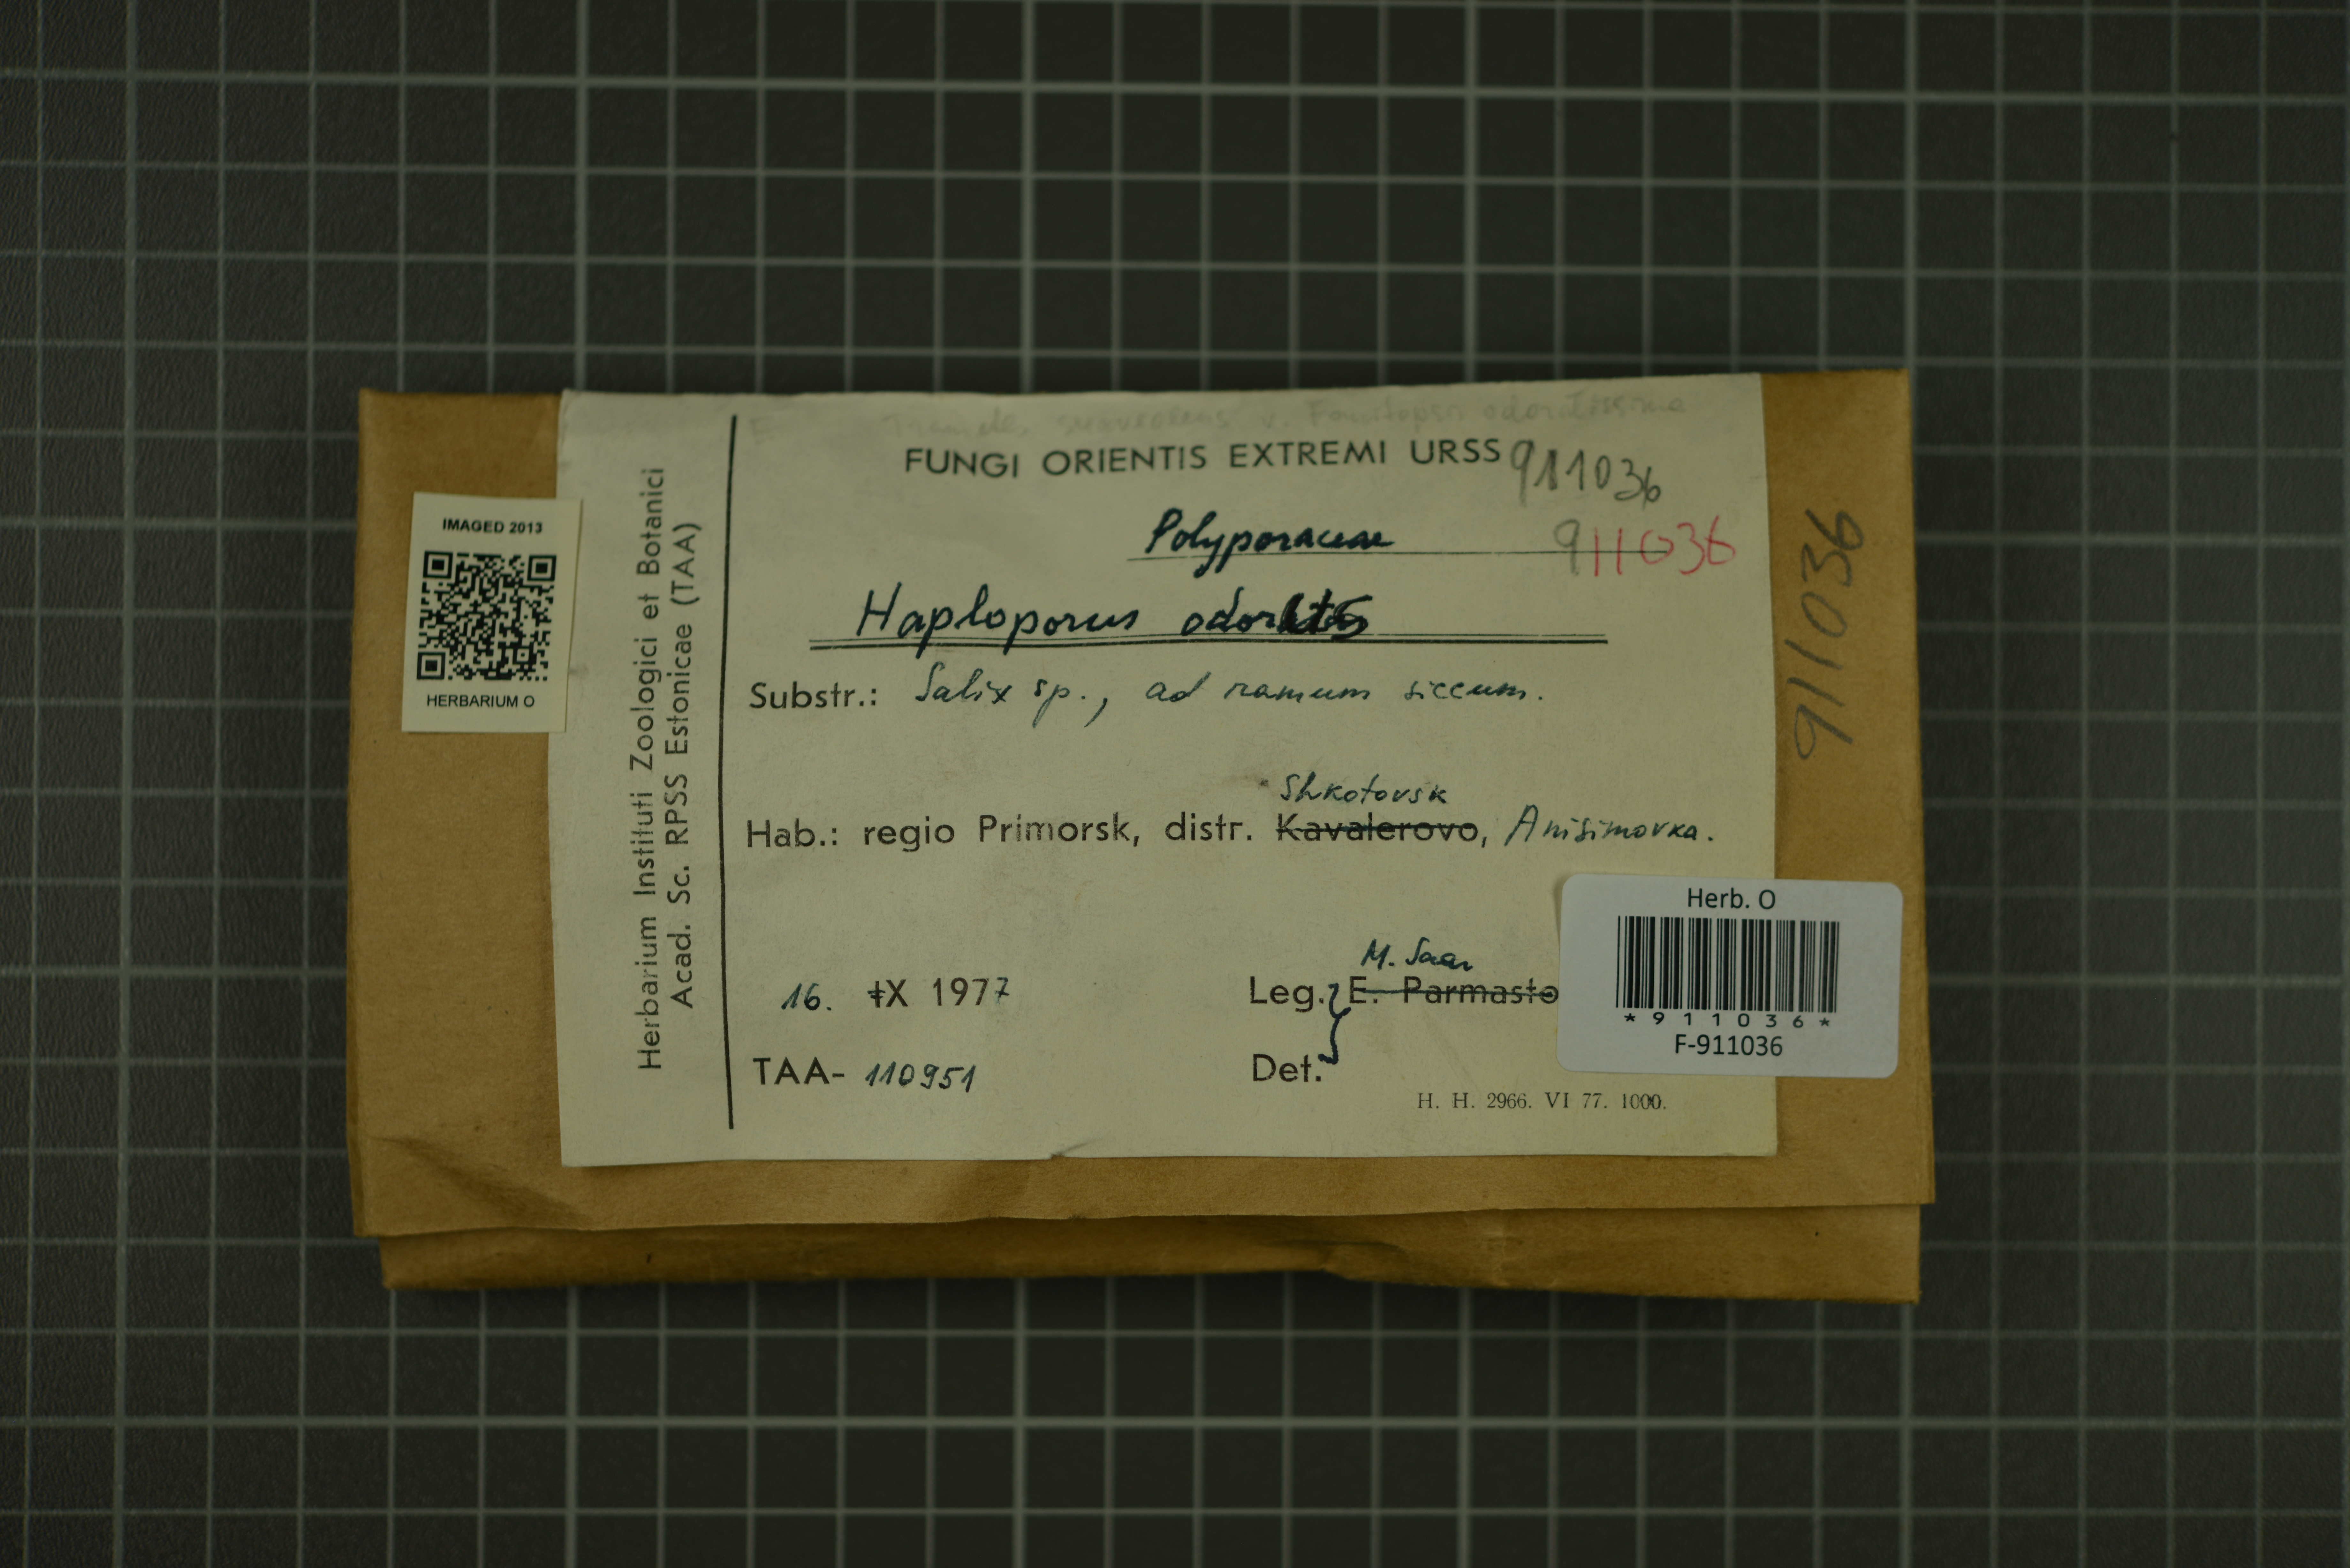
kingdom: Fungi
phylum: Basidiomycota
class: Agaricomycetes
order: Polyporales
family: Polyporaceae
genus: Haploporus
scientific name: Haploporus odorus
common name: Aniseed polypore
